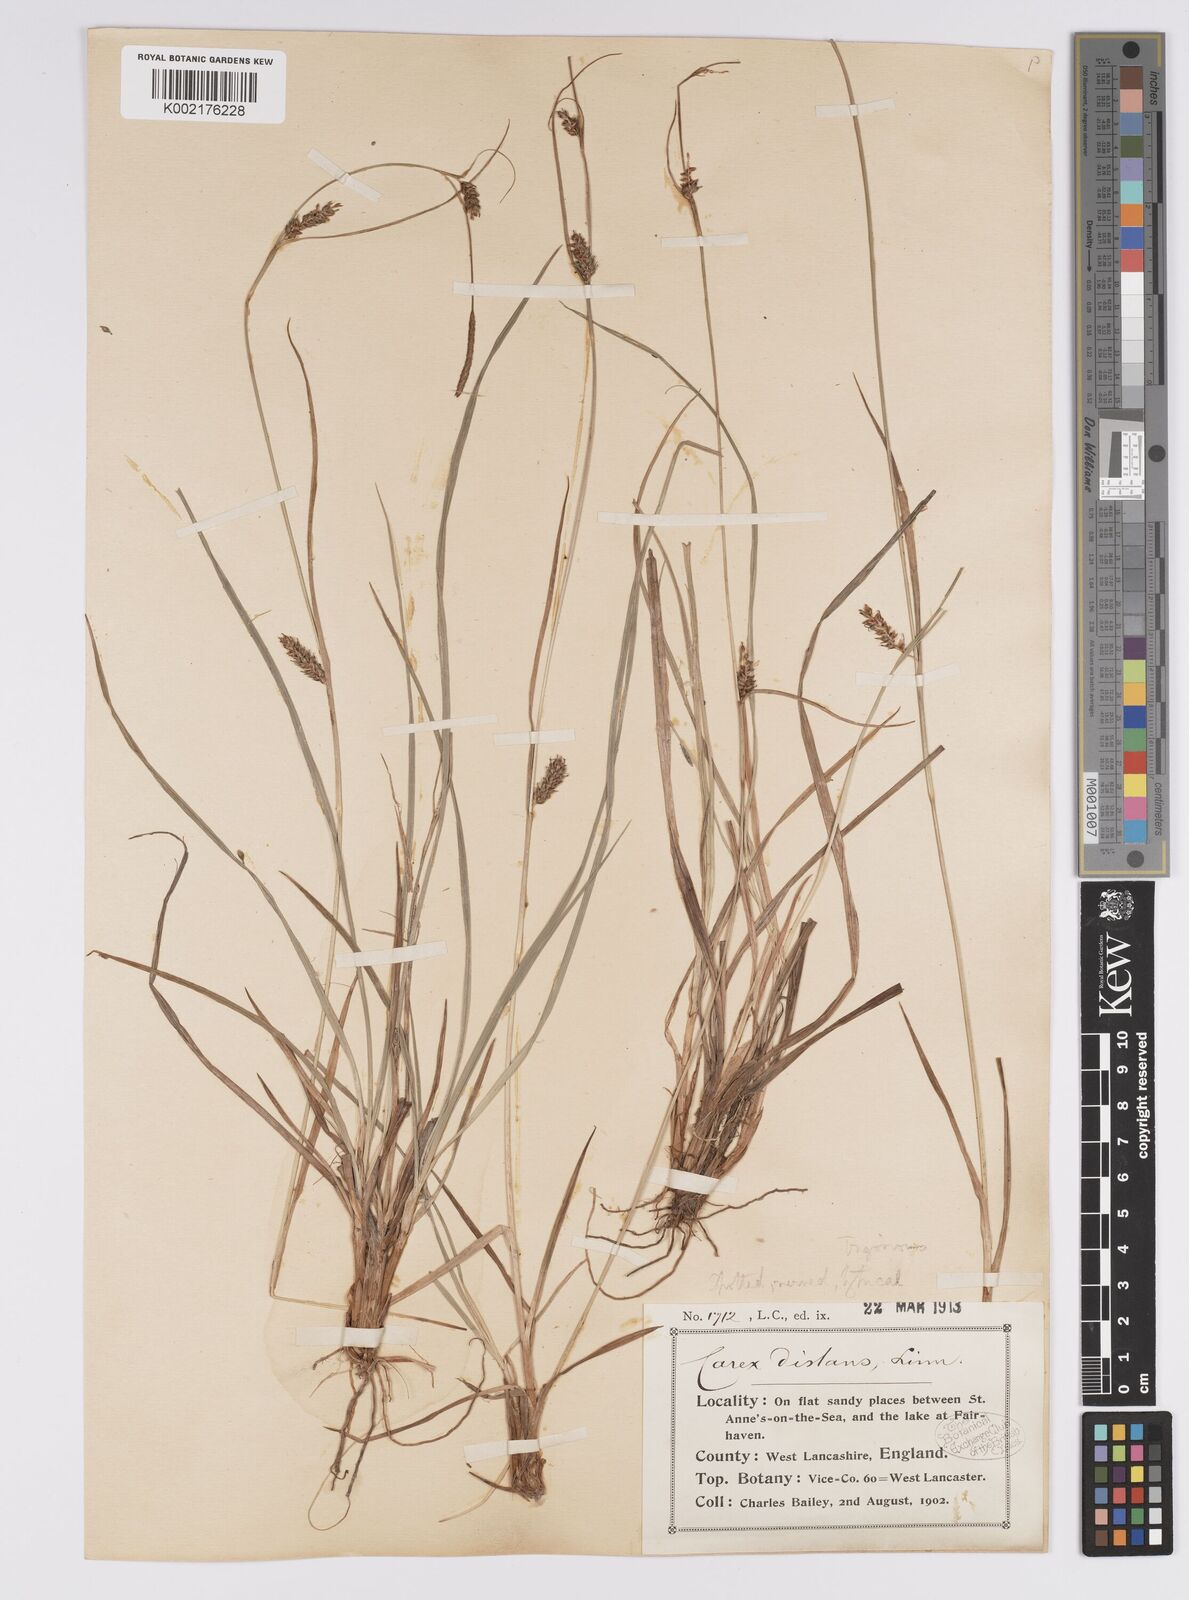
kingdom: Plantae
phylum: Tracheophyta
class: Liliopsida
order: Poales
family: Cyperaceae
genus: Carex
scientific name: Carex distans
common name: Distant sedge
